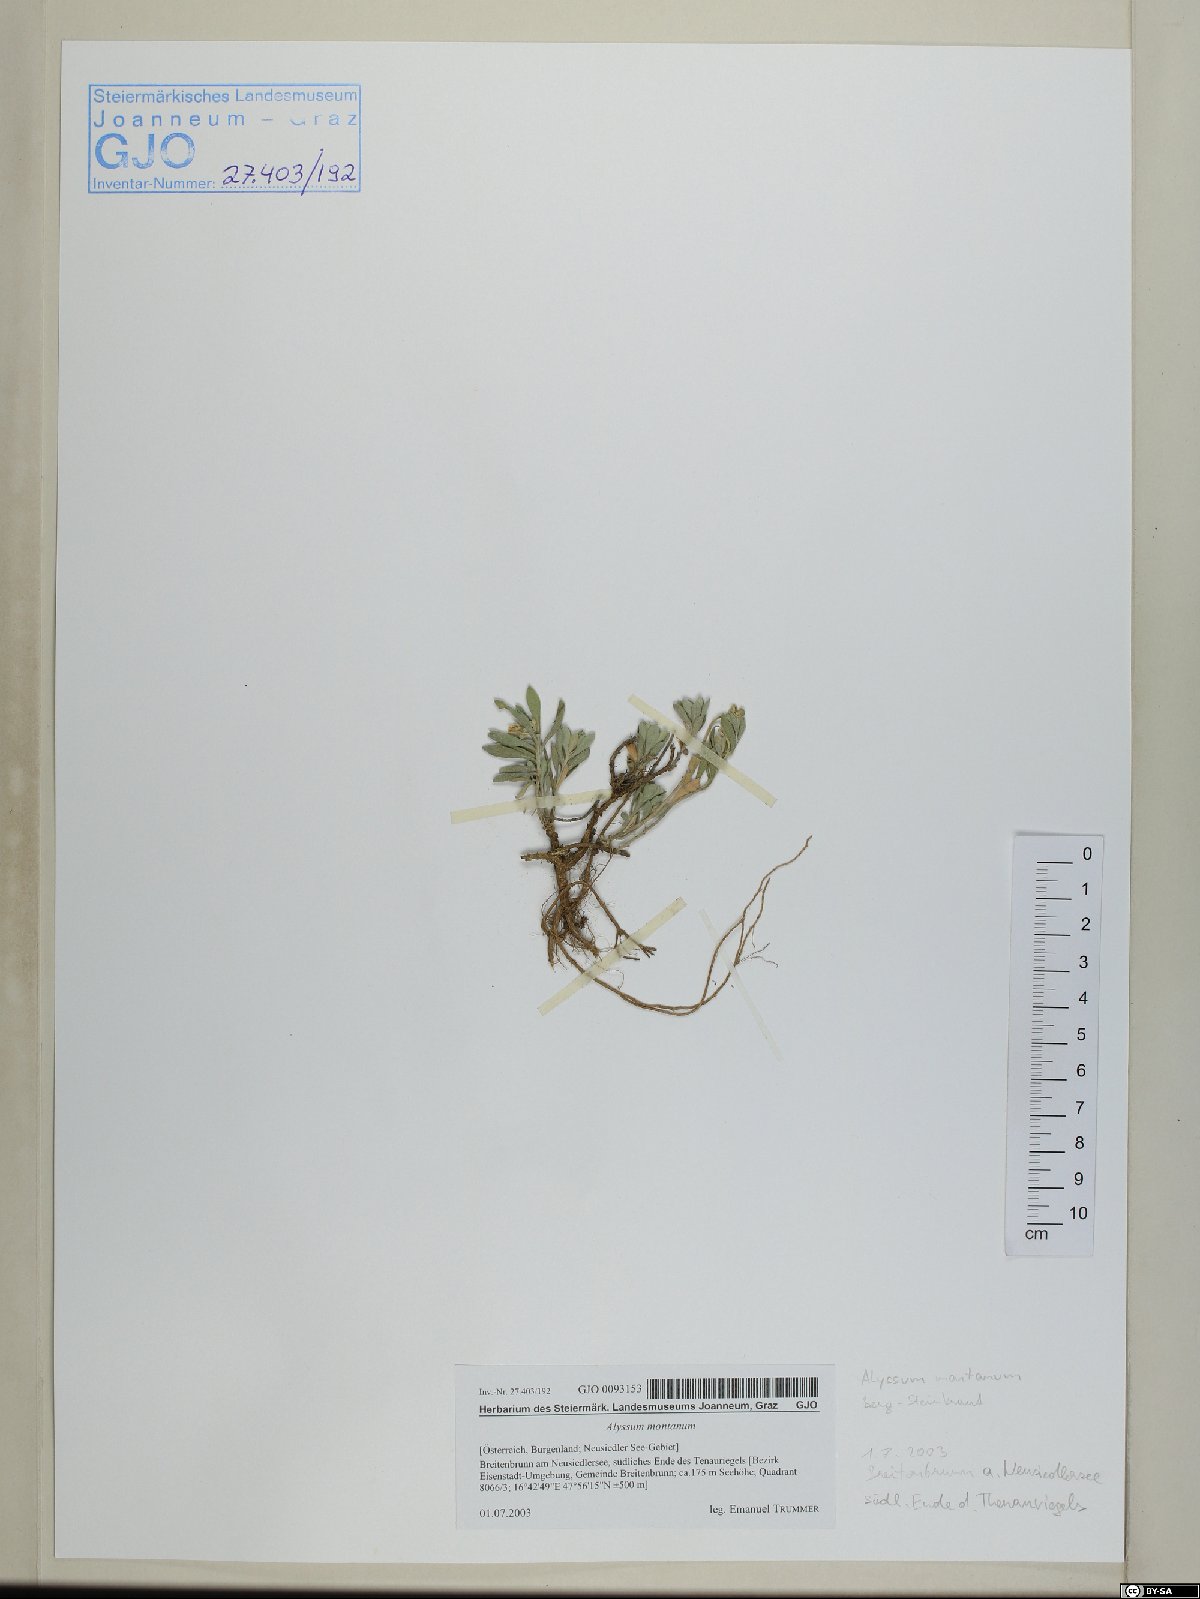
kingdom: Plantae
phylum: Tracheophyta
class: Magnoliopsida
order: Brassicales
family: Brassicaceae
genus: Alyssum
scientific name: Alyssum montanum
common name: Mountain alison
